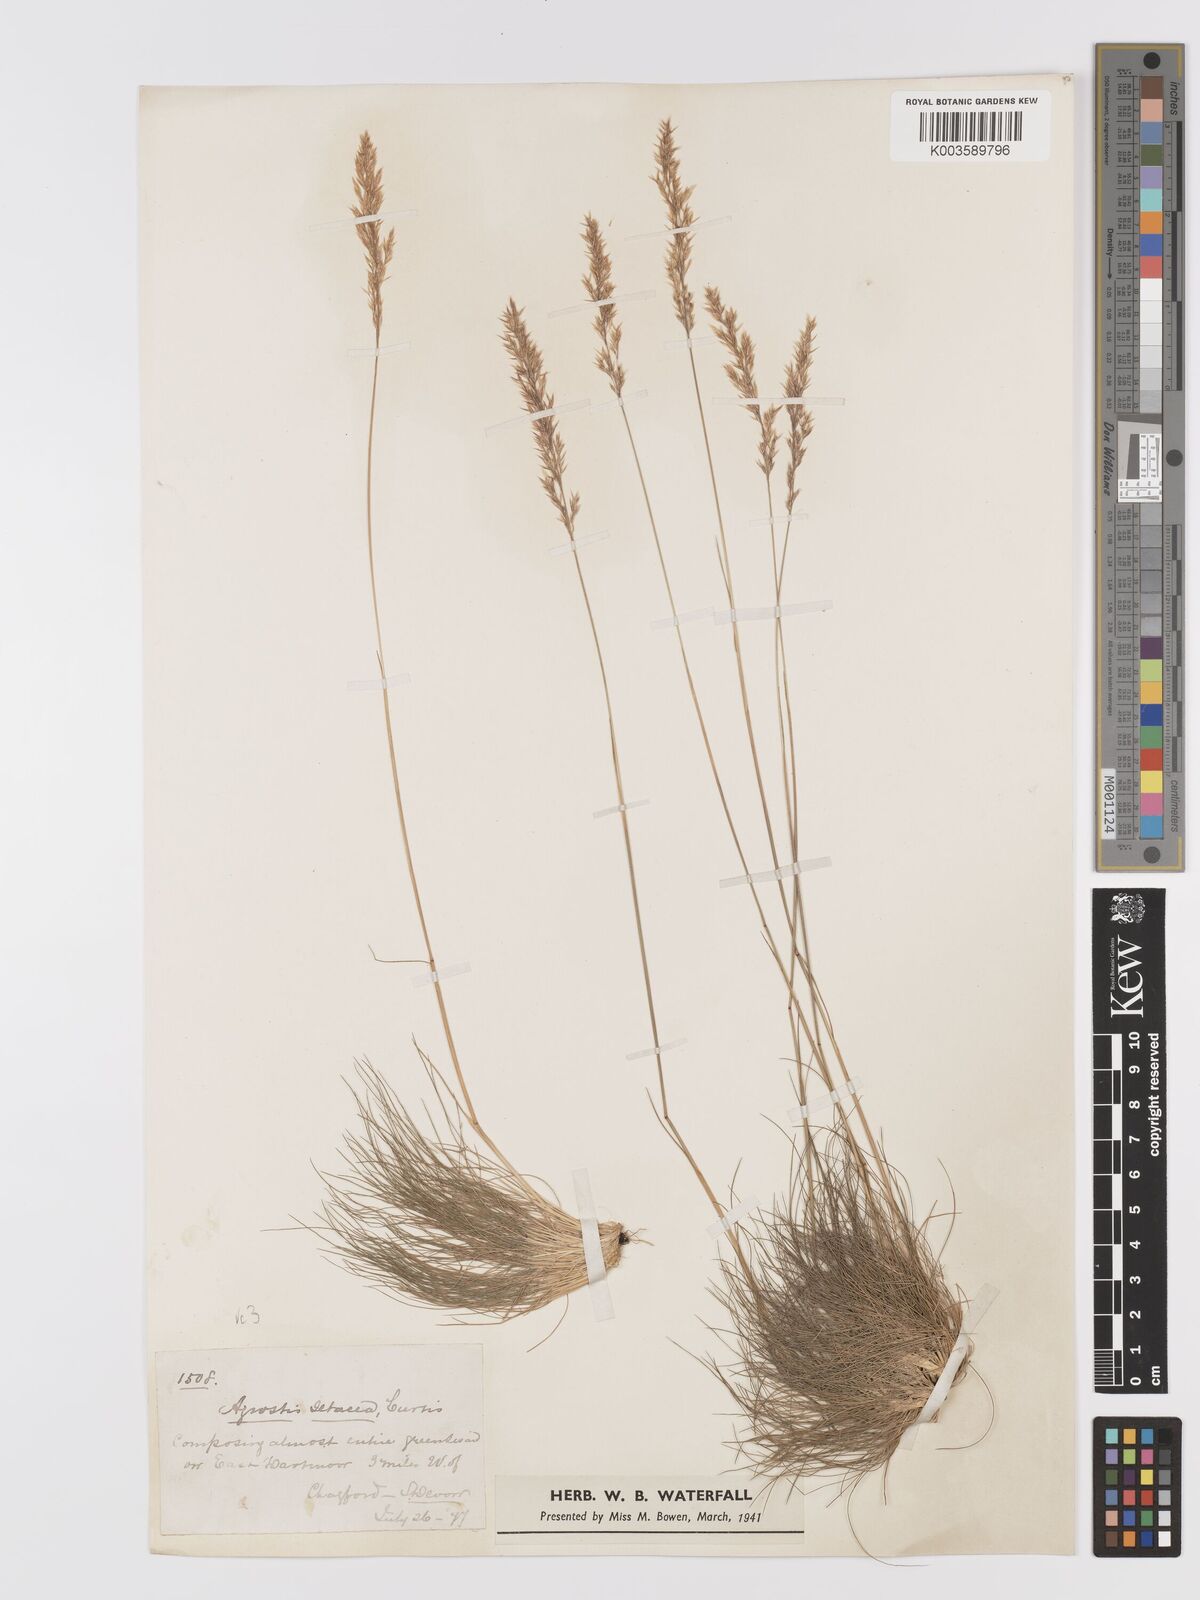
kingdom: Plantae
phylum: Tracheophyta
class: Liliopsida
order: Poales
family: Poaceae
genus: Alpagrostis
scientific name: Alpagrostis setacea
